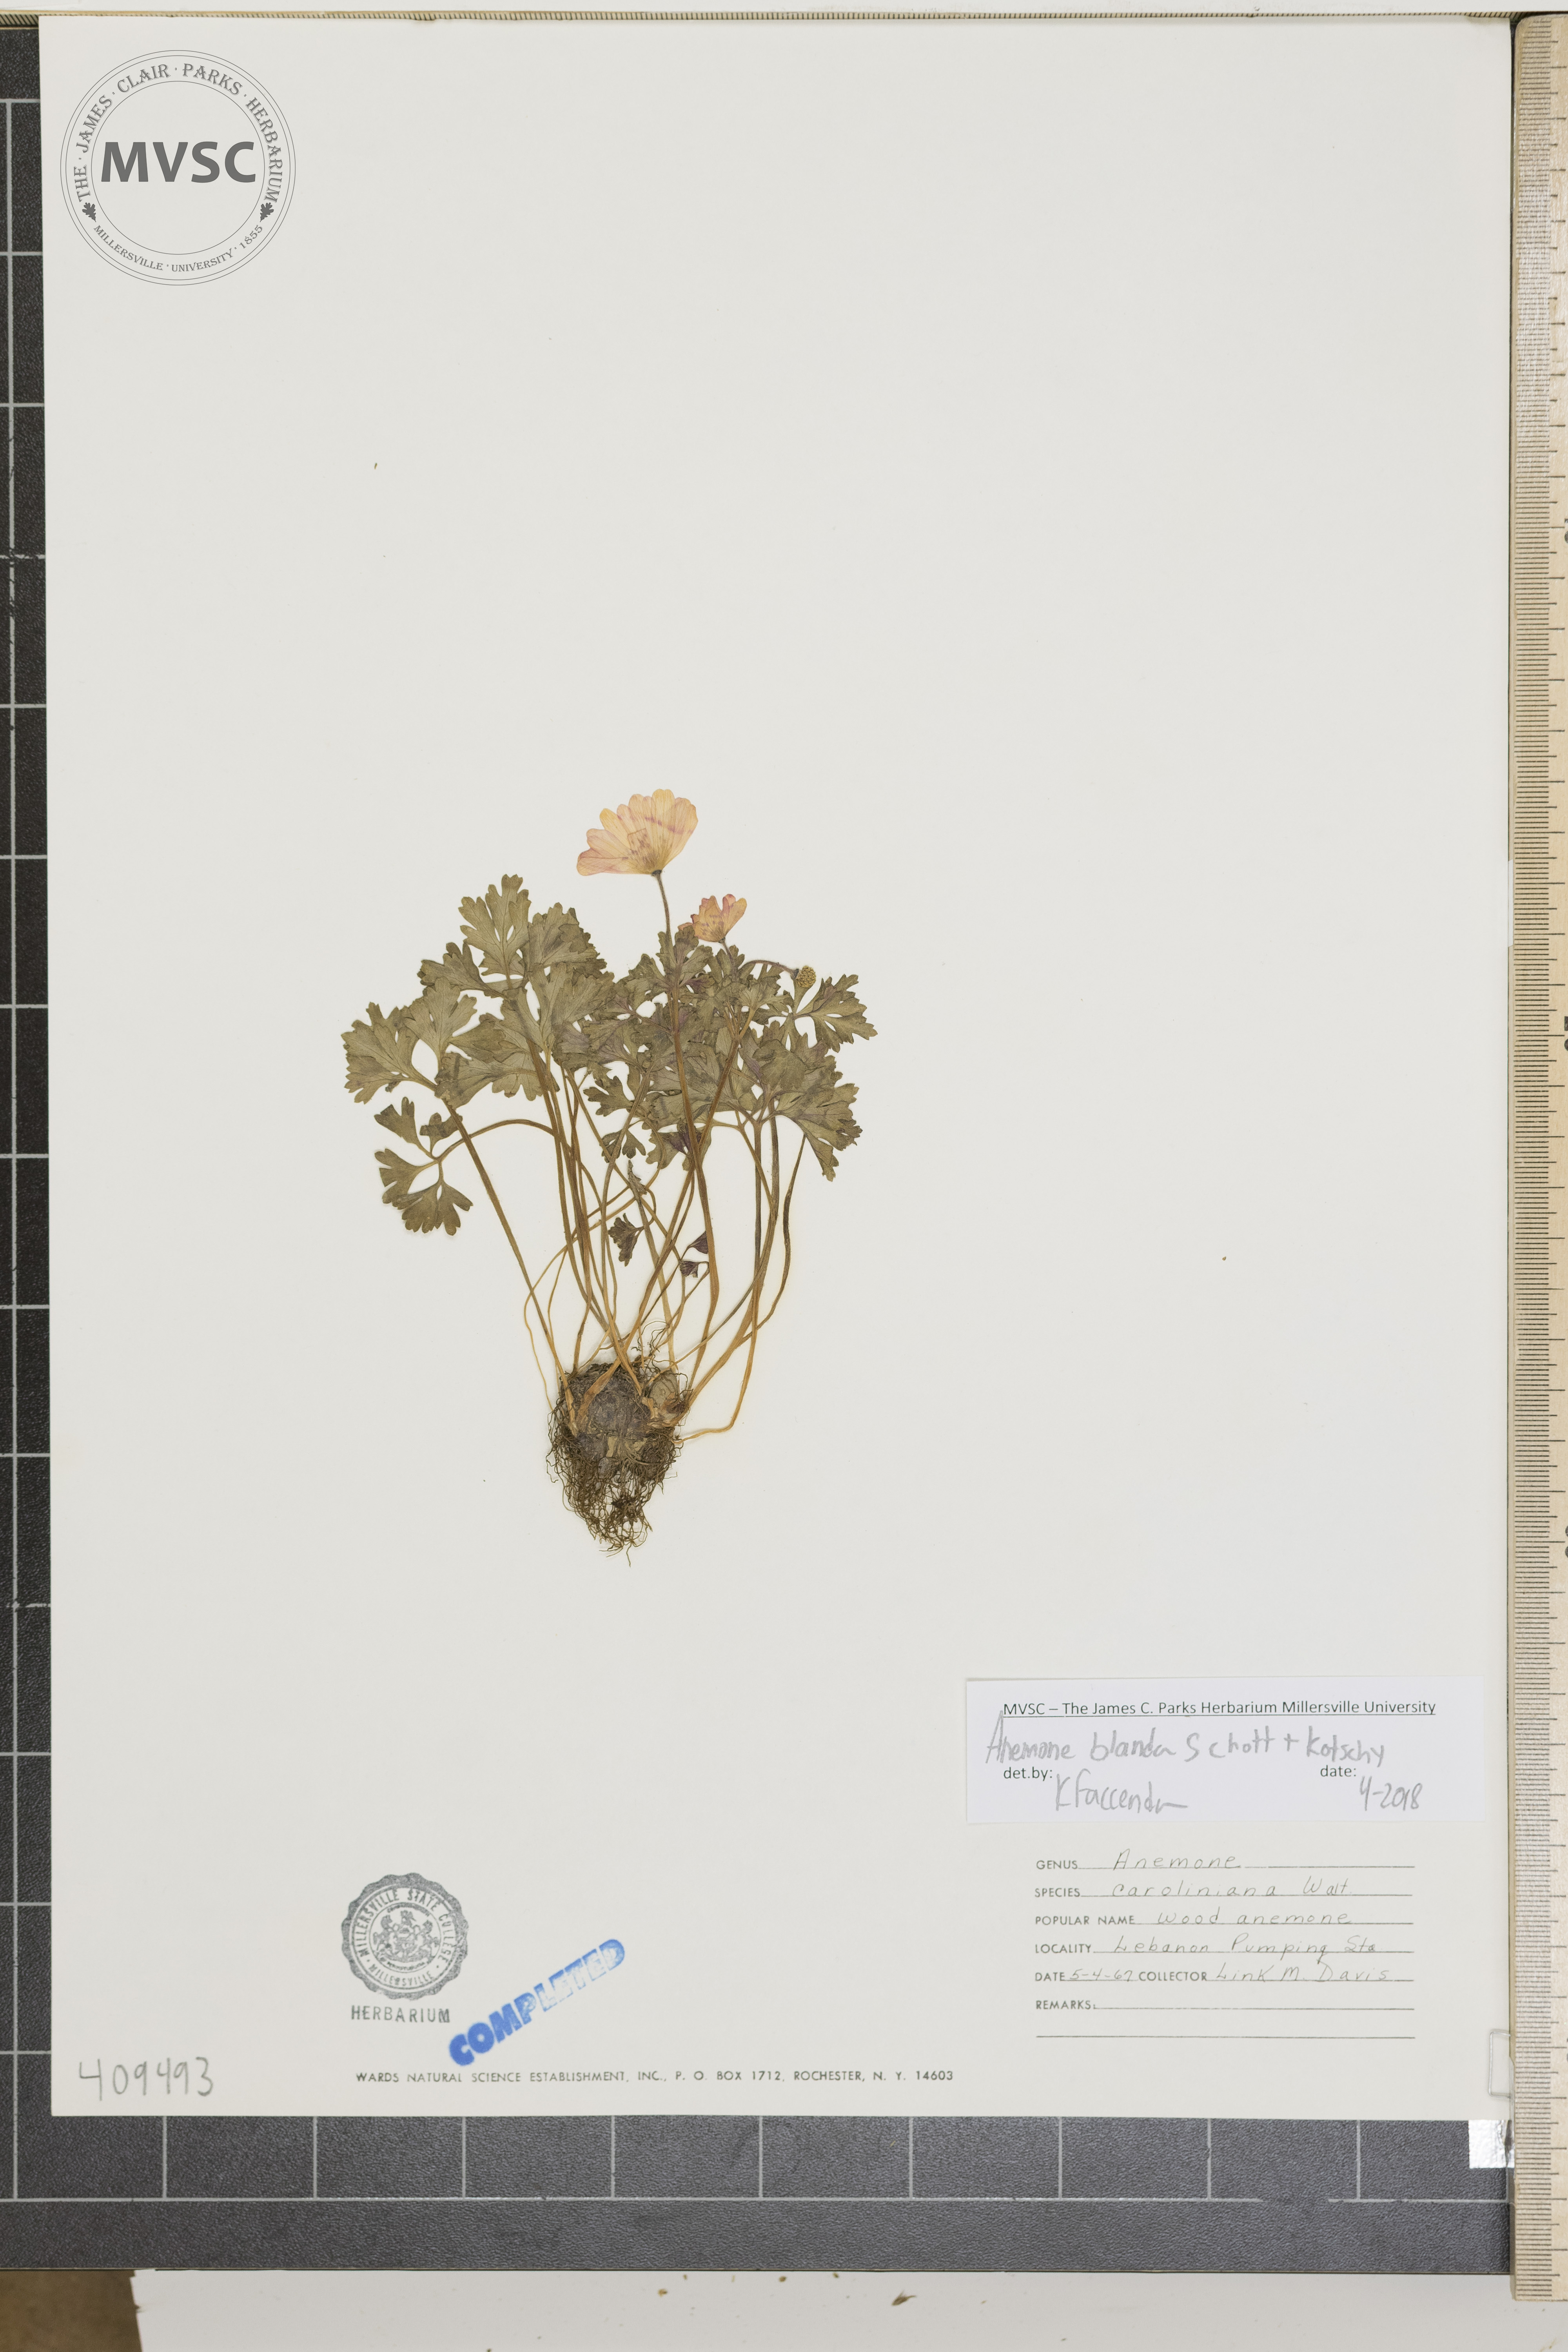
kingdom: Plantae
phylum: Tracheophyta
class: Magnoliopsida
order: Ranunculales
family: Ranunculaceae
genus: Anemone
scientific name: Anemone blanda
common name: Wood anemone
